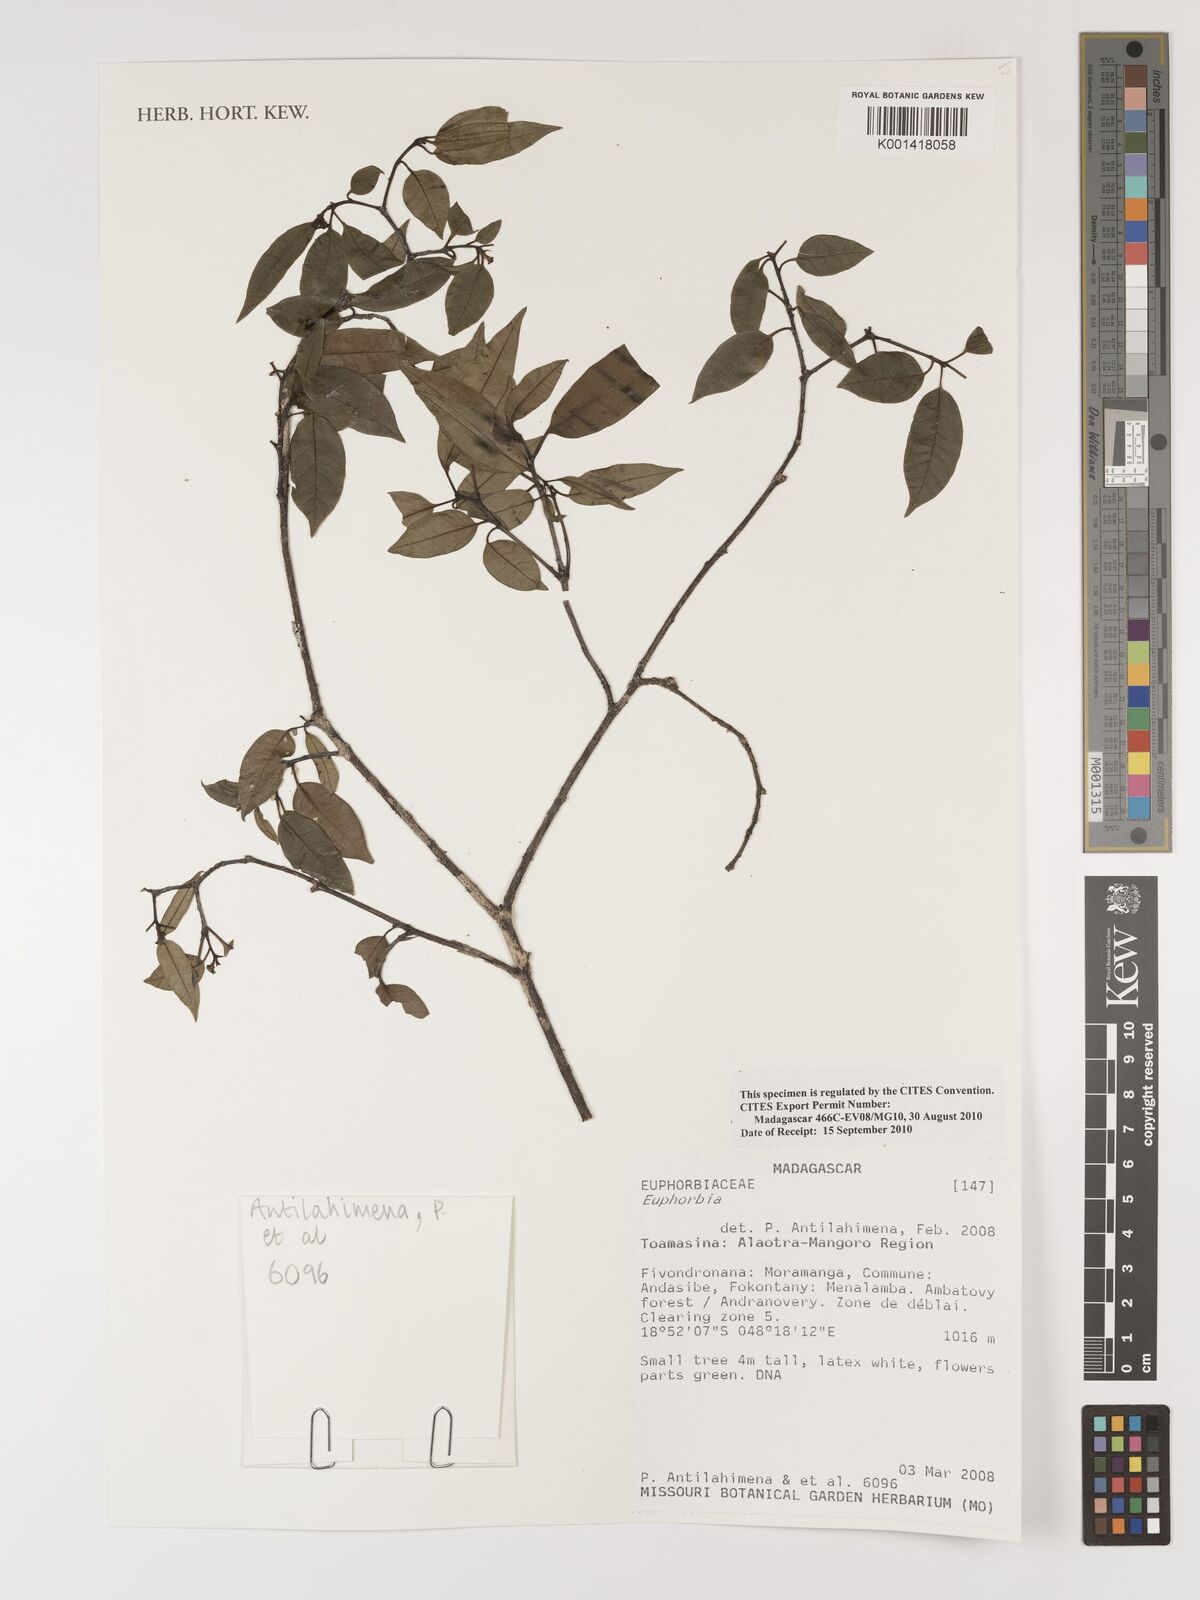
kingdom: Plantae
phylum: Tracheophyta
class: Magnoliopsida
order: Malpighiales
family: Euphorbiaceae
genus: Euphorbia
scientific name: Euphorbia
